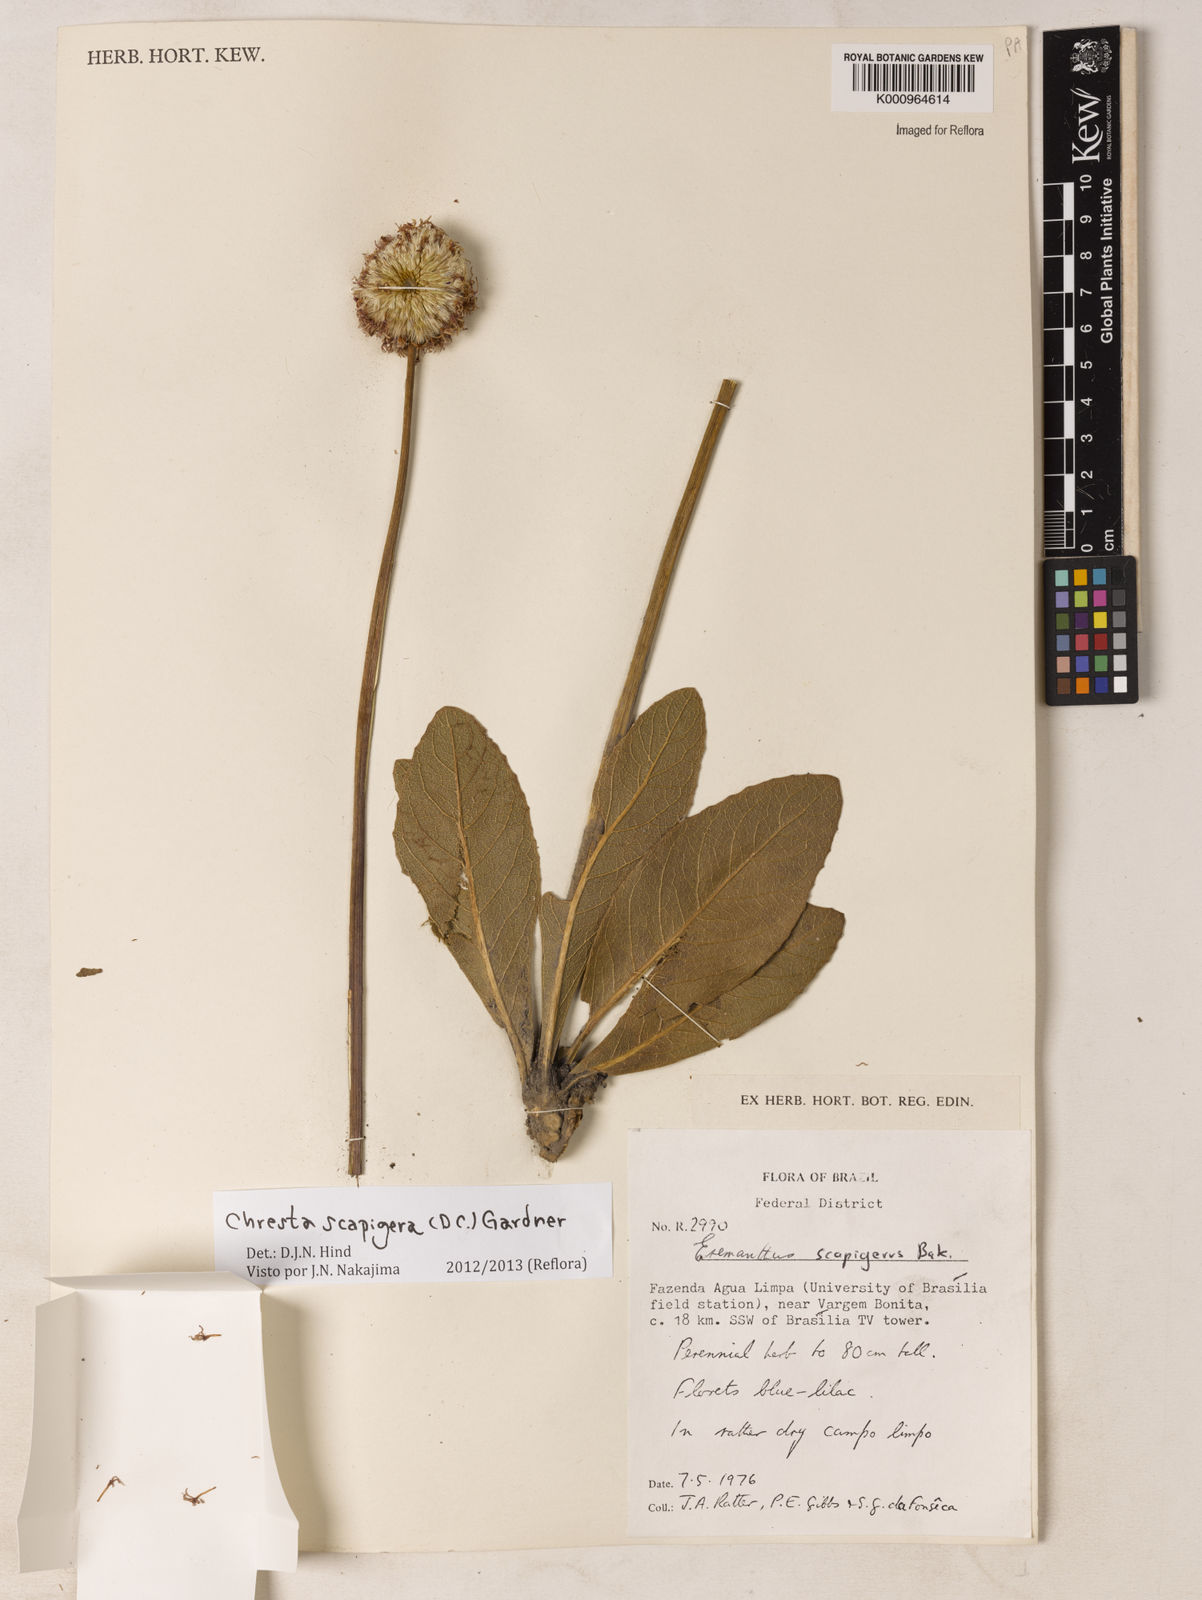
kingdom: Plantae
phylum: Tracheophyta
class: Magnoliopsida
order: Asterales
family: Asteraceae
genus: Chresta
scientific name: Chresta scapigera
